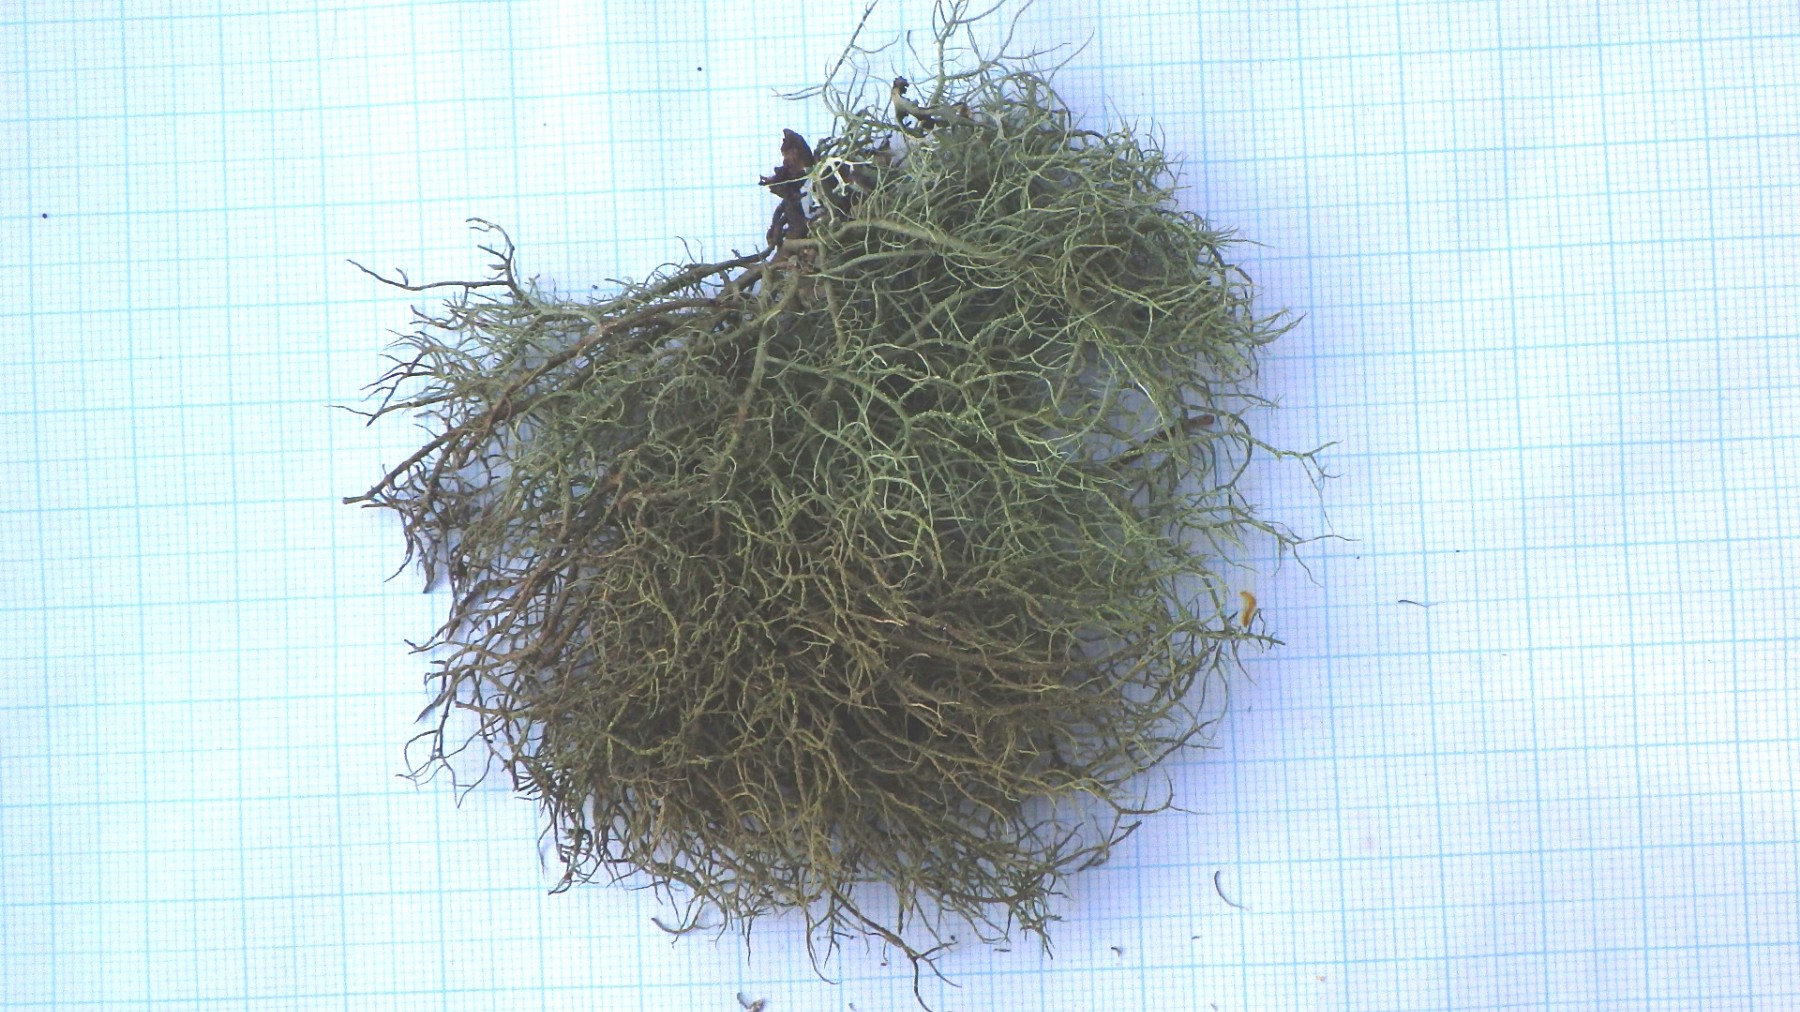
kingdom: Fungi
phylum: Ascomycota
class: Lecanoromycetes
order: Lecanorales
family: Parmeliaceae
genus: Usnea
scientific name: Usnea subfloridana
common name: busket skæglav
